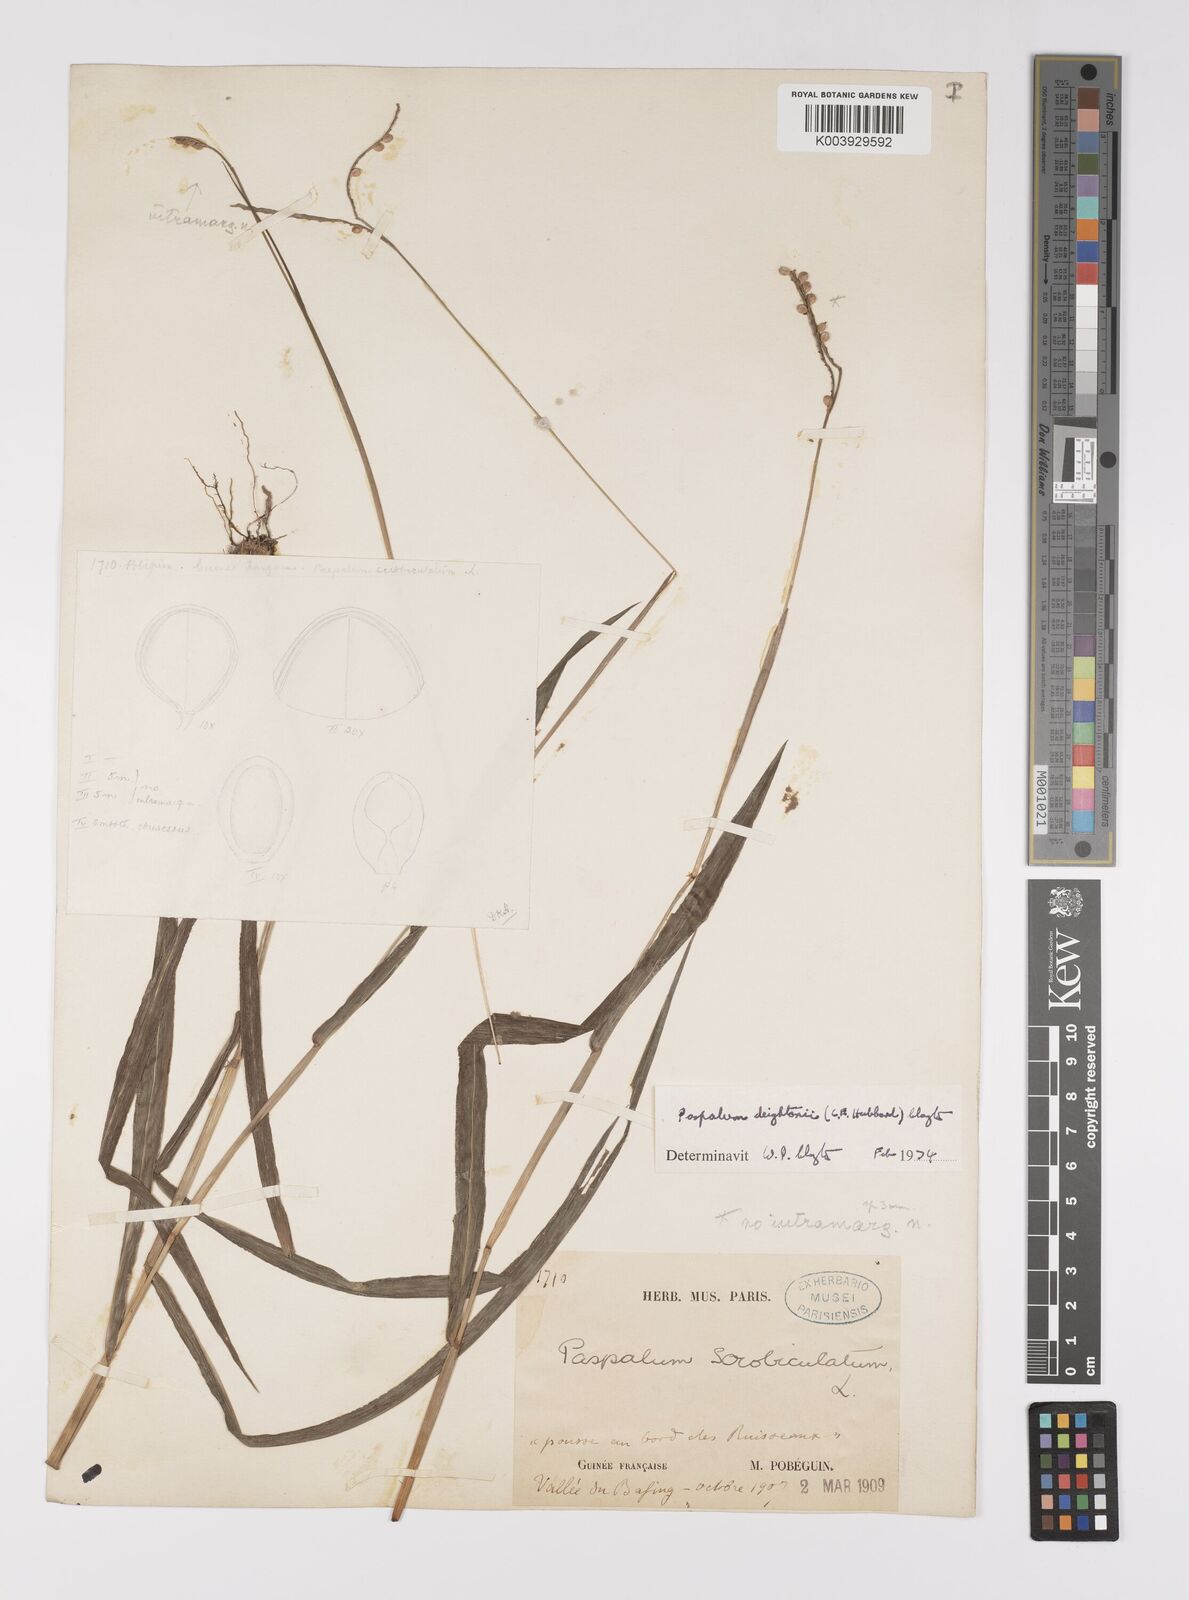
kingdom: Plantae
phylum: Tracheophyta
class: Liliopsida
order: Poales
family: Poaceae
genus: Paspalum
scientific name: Paspalum scrobiculatum
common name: Kodo millet
